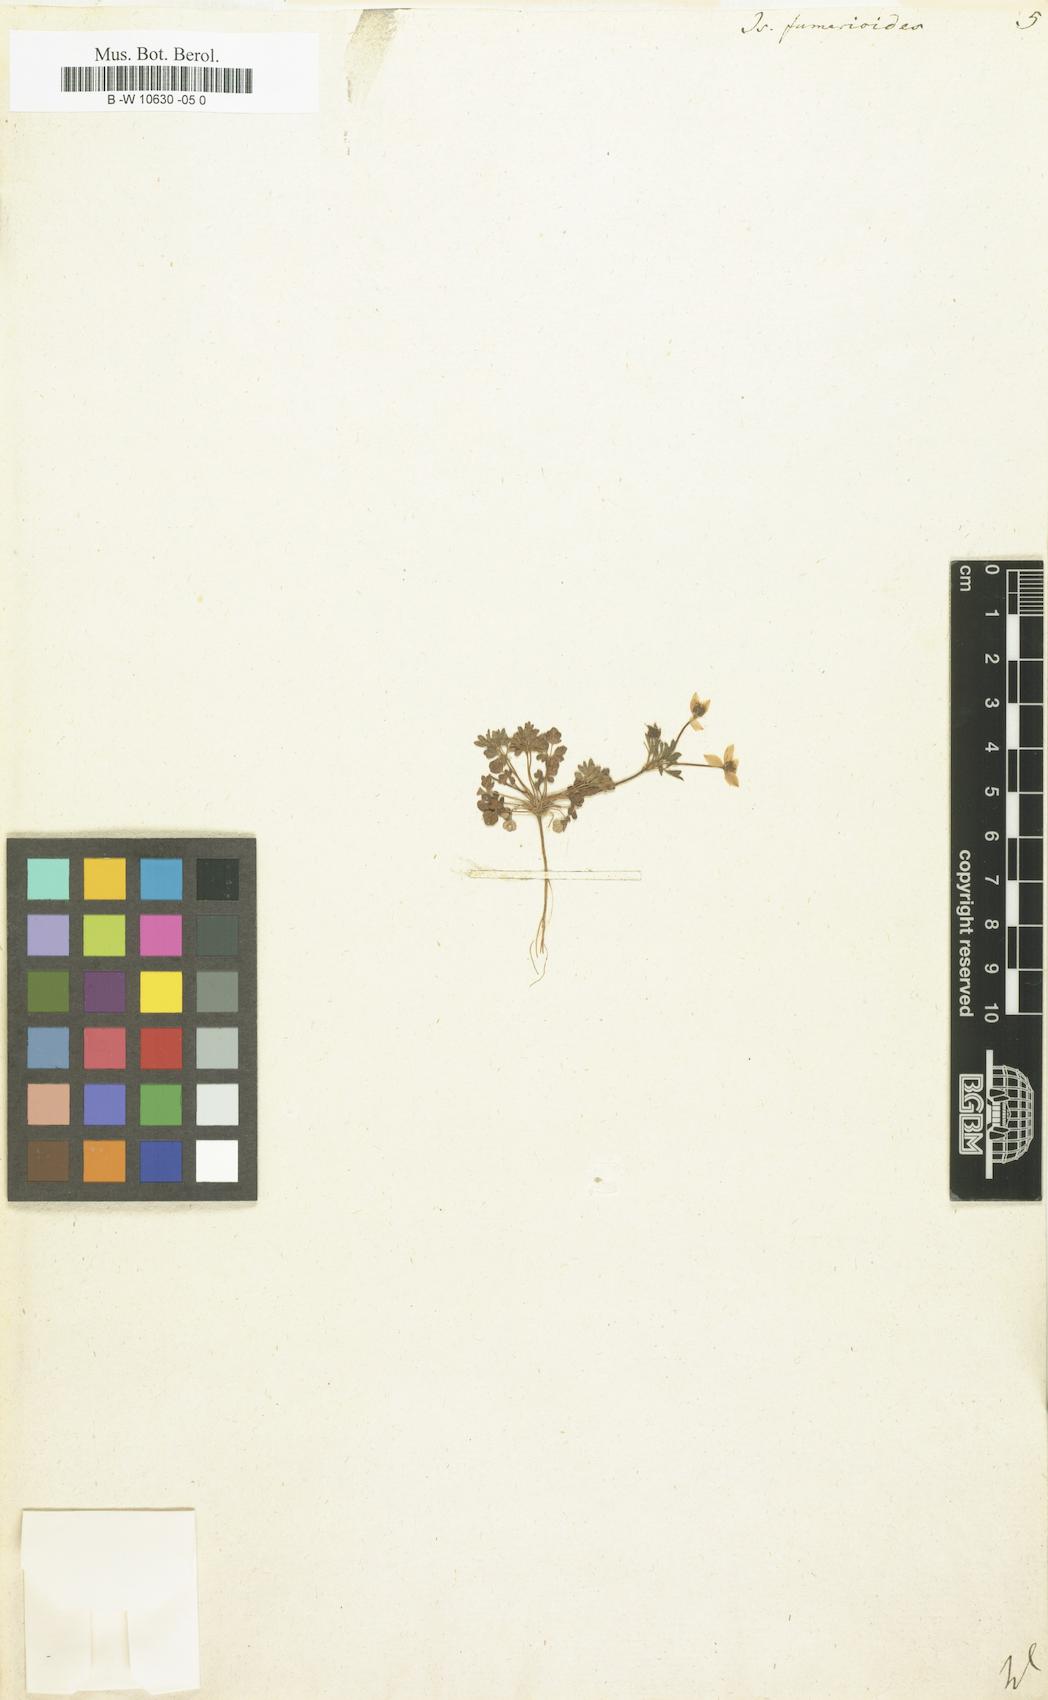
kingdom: Plantae
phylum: Tracheophyta
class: Magnoliopsida
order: Ranunculales
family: Ranunculaceae
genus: Leptopyrum
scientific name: Leptopyrum fumarioides
